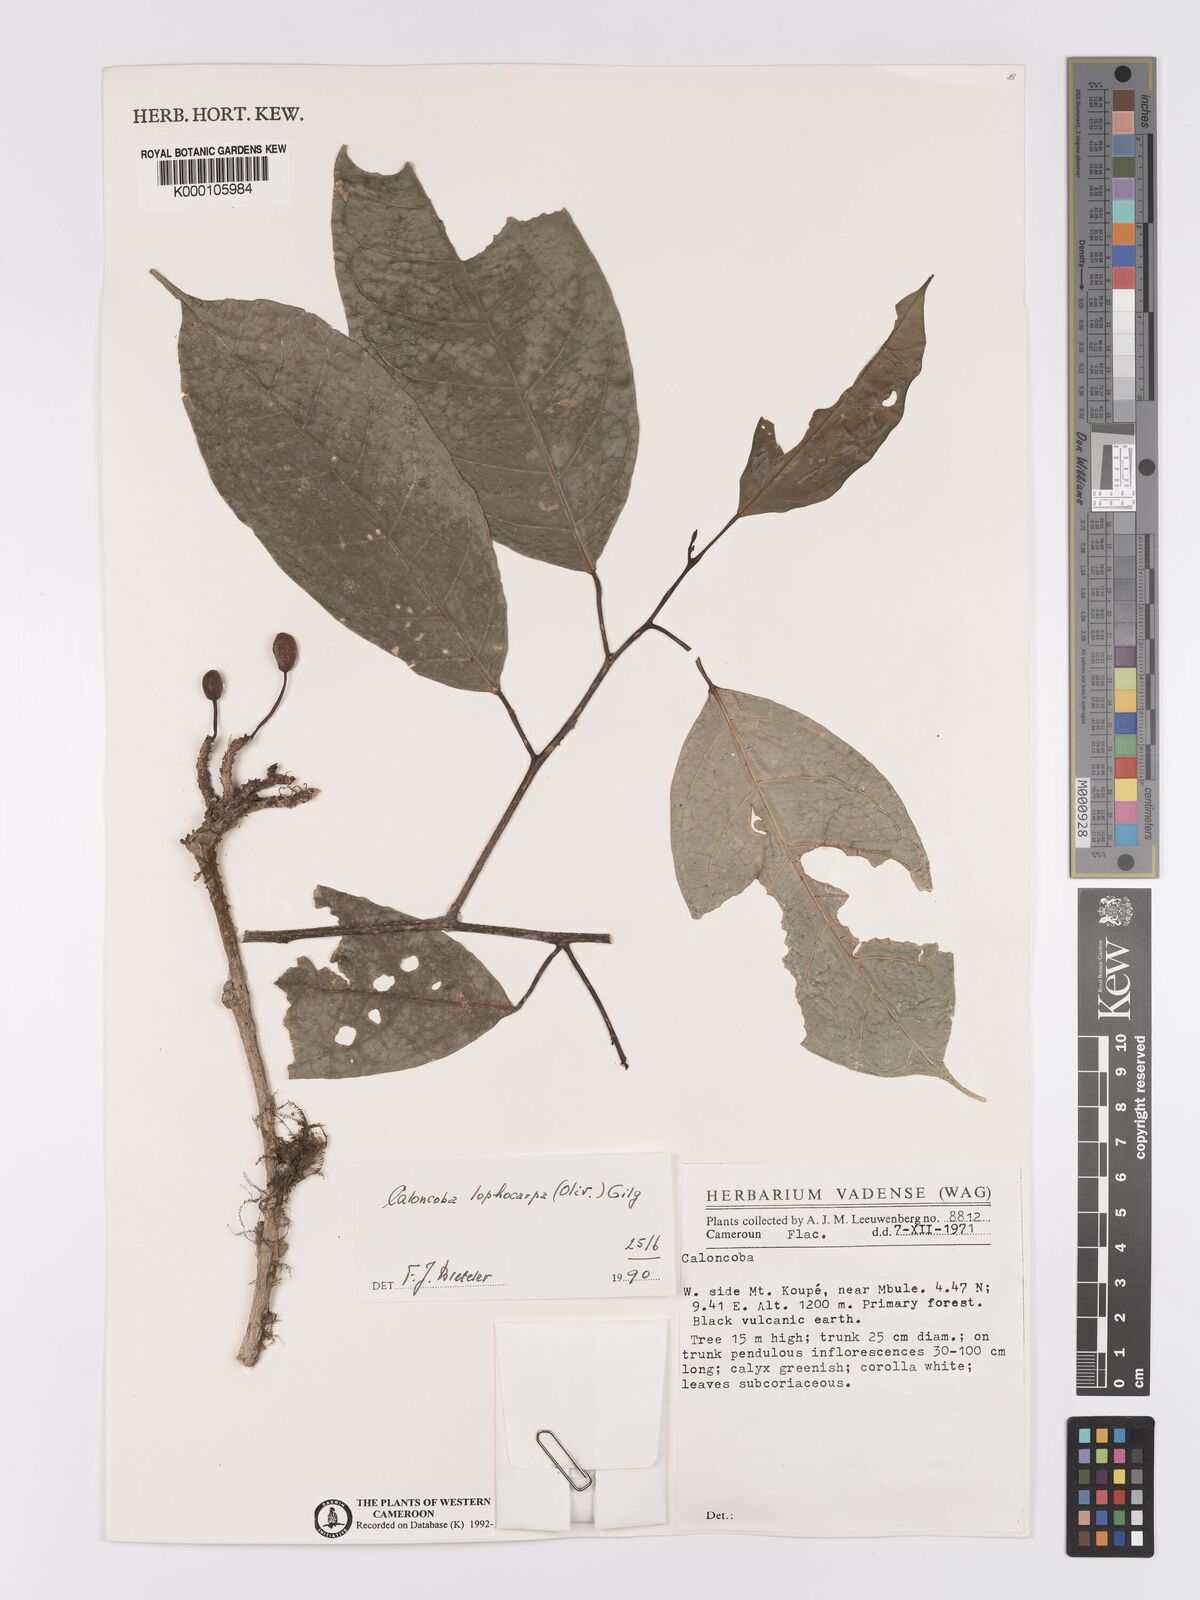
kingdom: Plantae
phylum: Tracheophyta
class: Magnoliopsida
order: Malpighiales
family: Achariaceae
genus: Caloncoba
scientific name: Caloncoba lophocarpa
